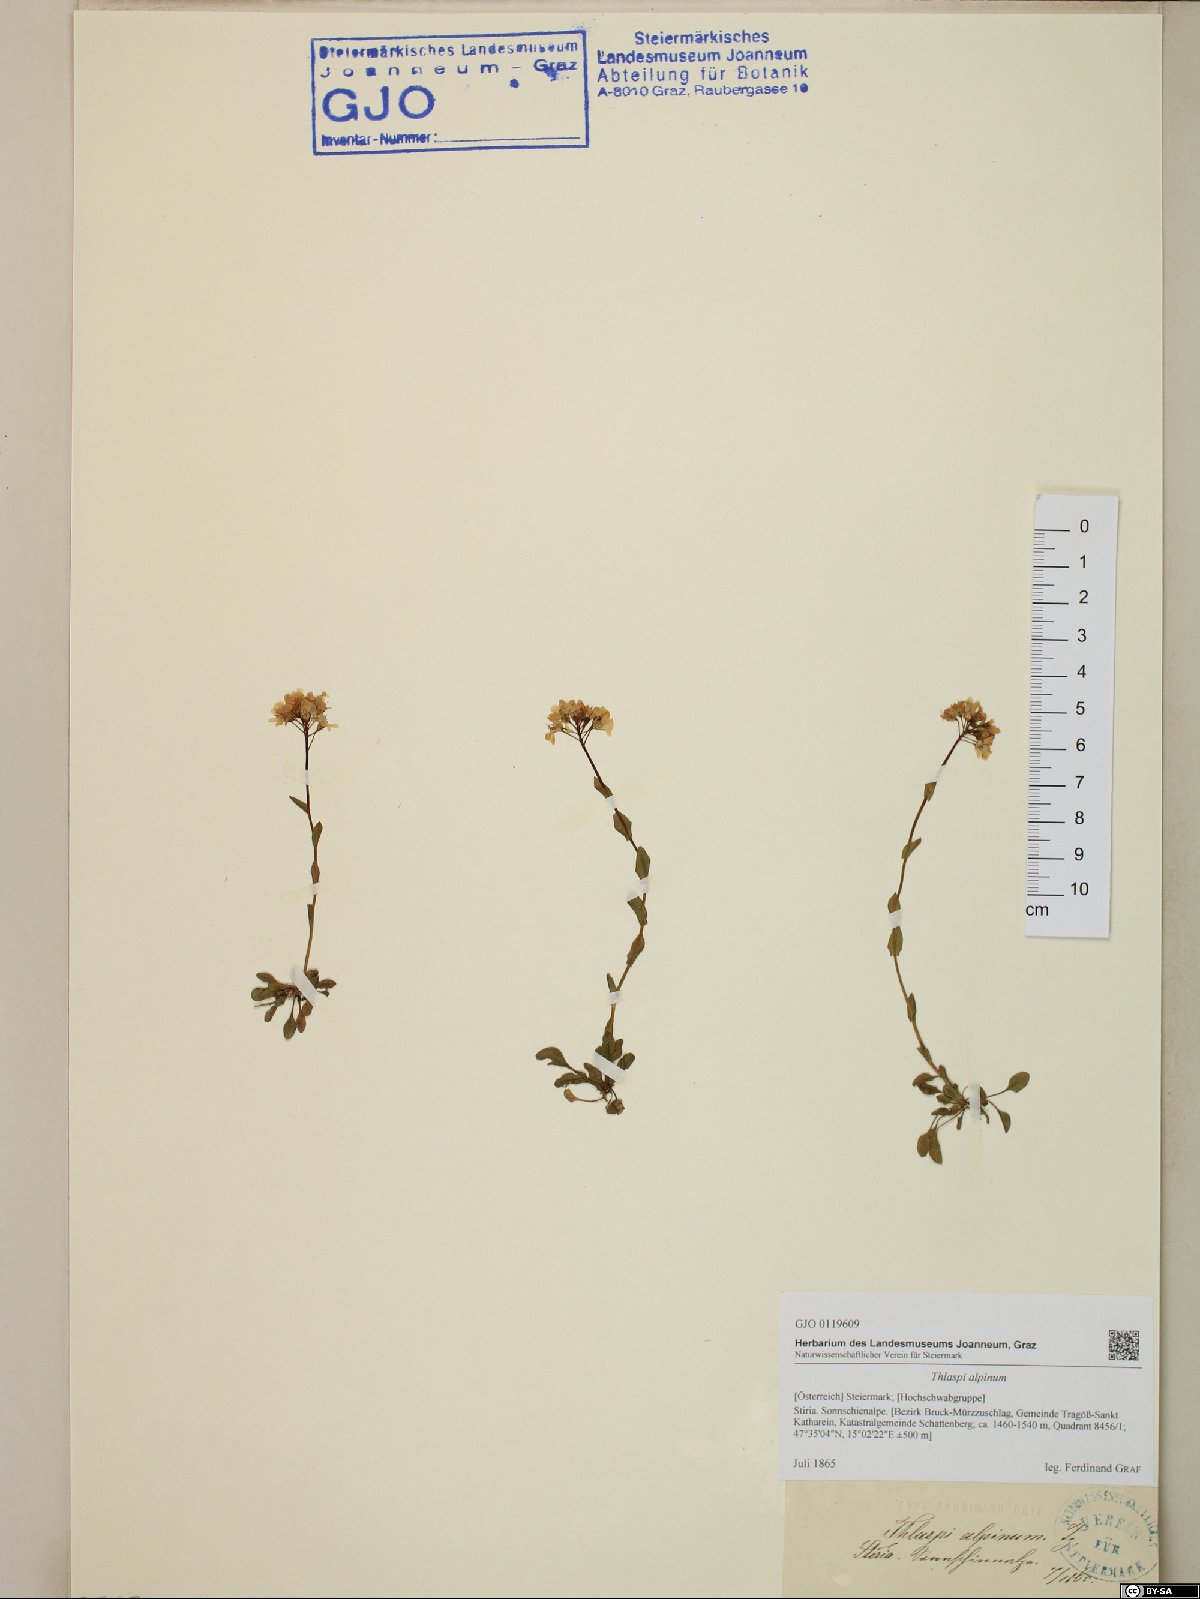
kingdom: Plantae
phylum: Tracheophyta
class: Magnoliopsida
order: Brassicales
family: Brassicaceae
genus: Noccaea
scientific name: Noccaea alpestris
